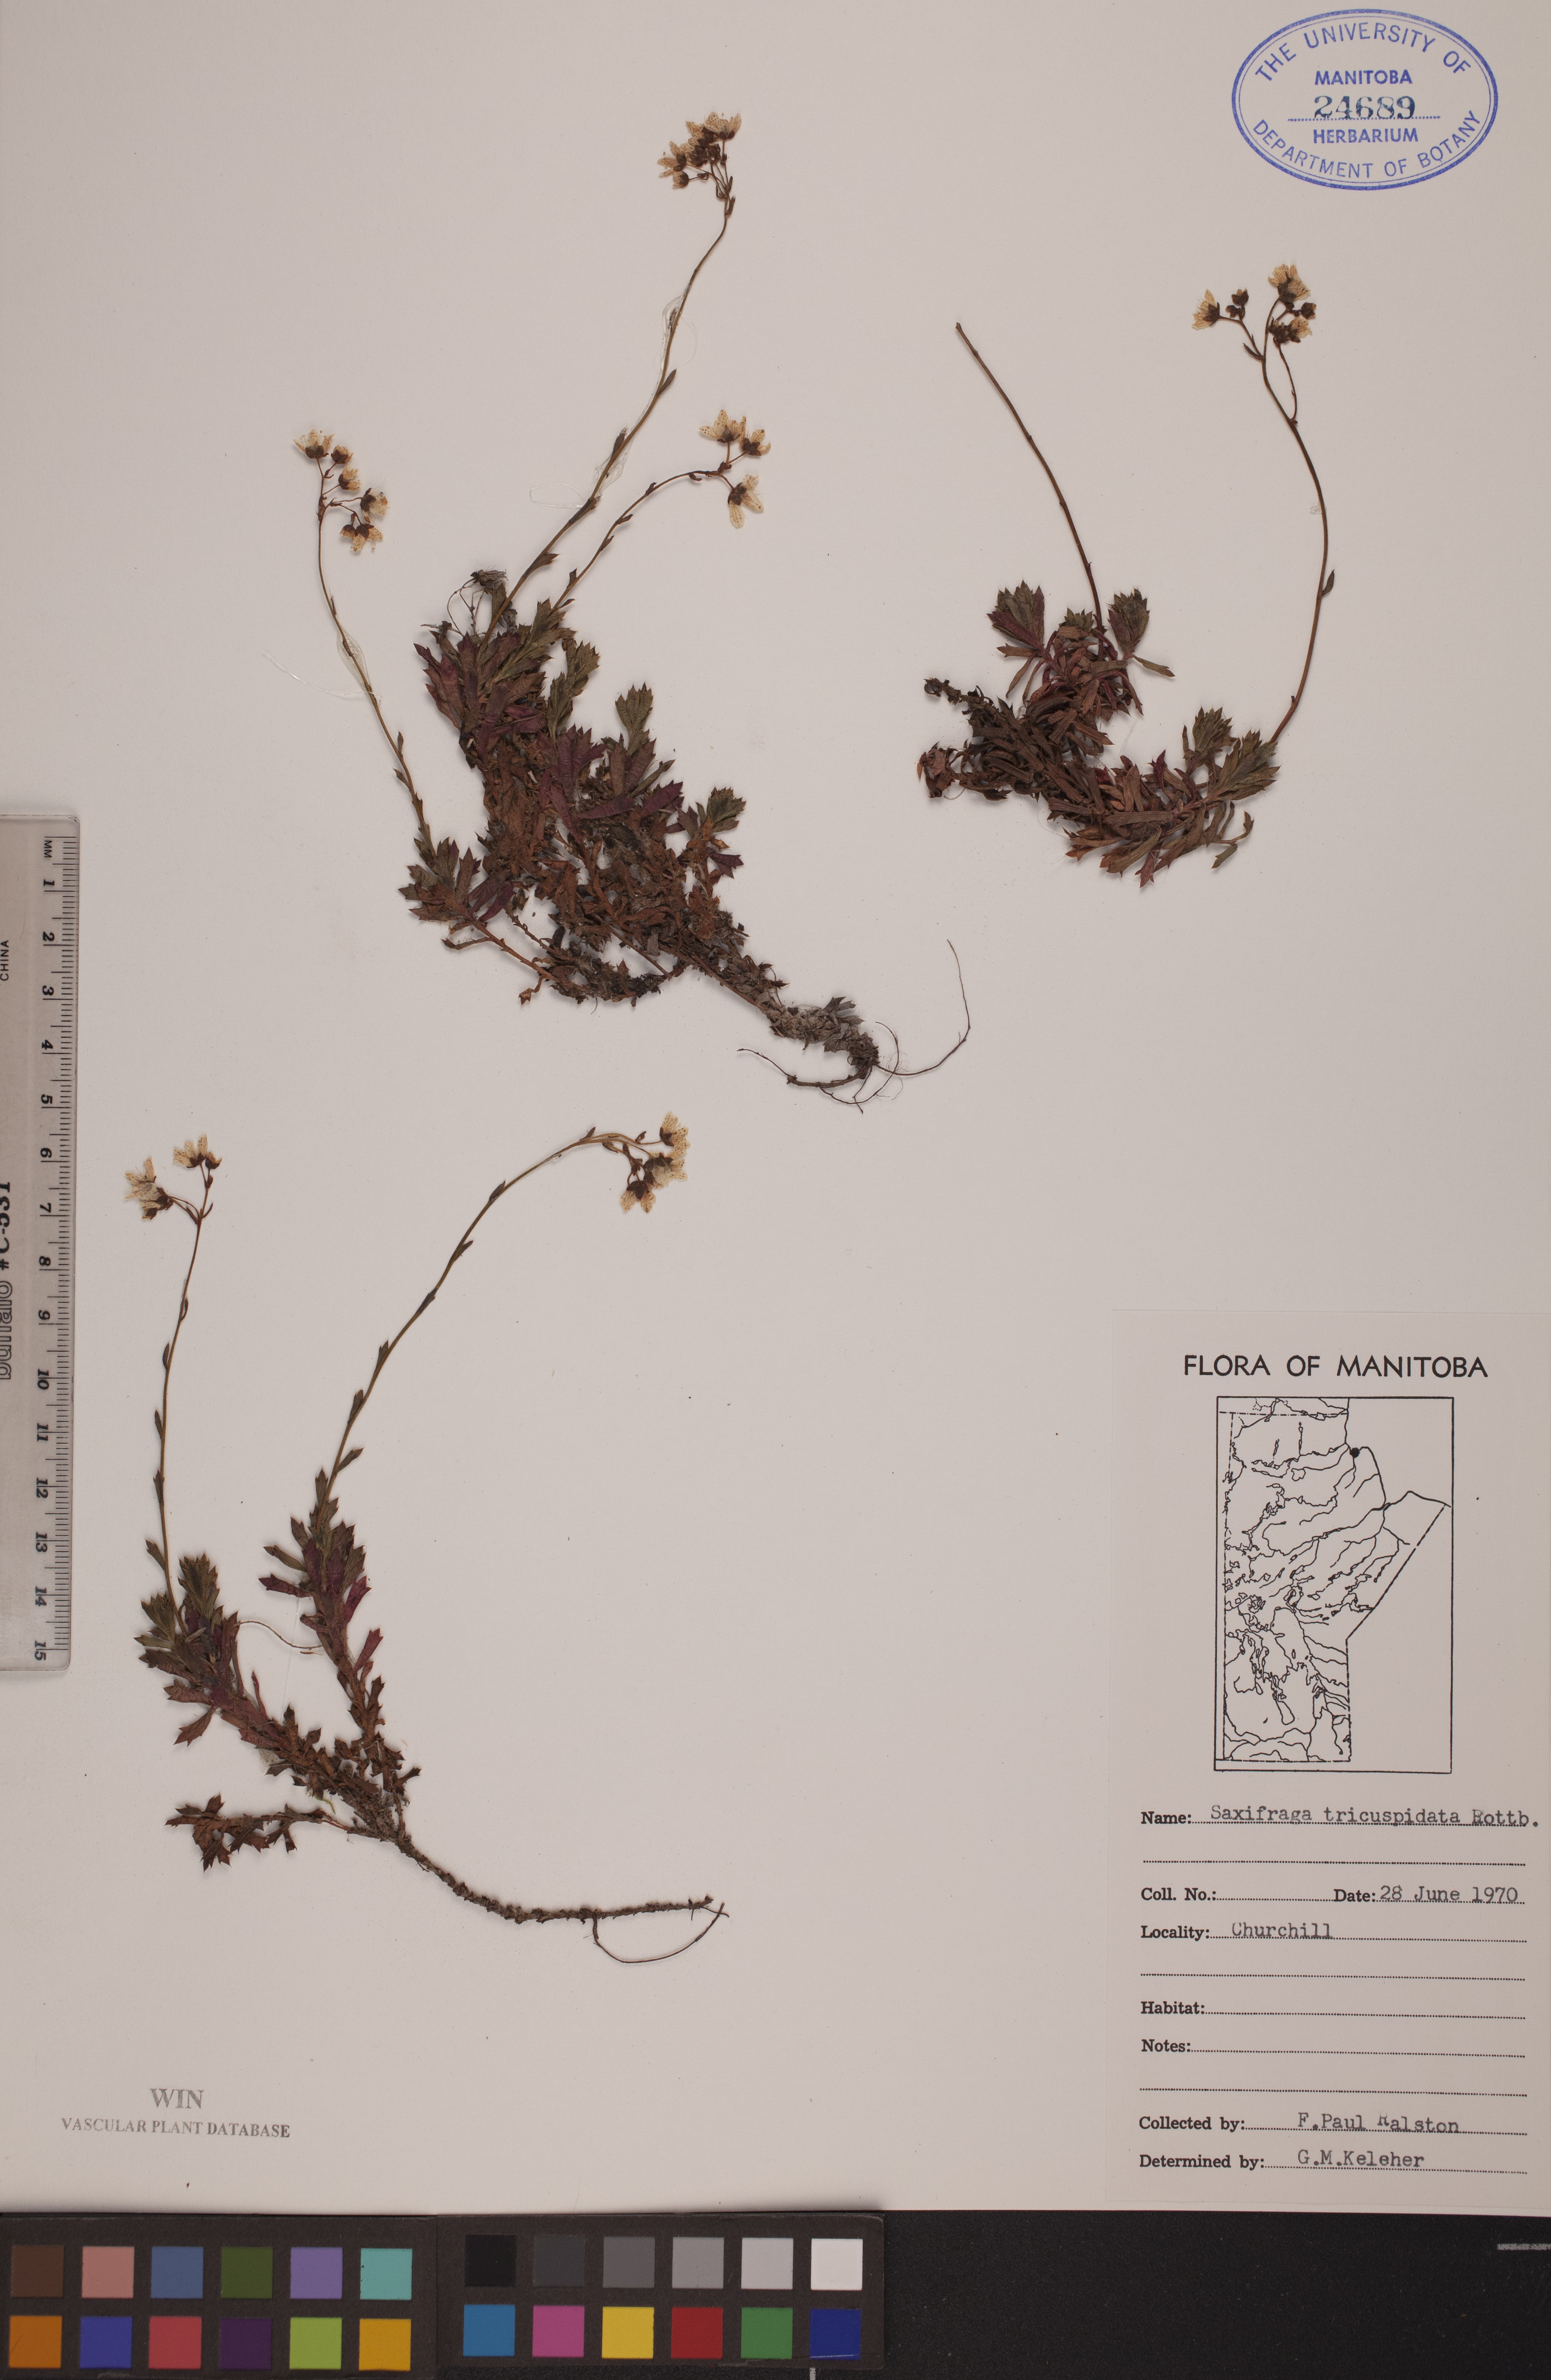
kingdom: Plantae
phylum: Tracheophyta
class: Magnoliopsida
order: Saxifragales
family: Saxifragaceae
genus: Saxifraga
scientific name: Saxifraga tricuspidata
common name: Prickly saxifrage
